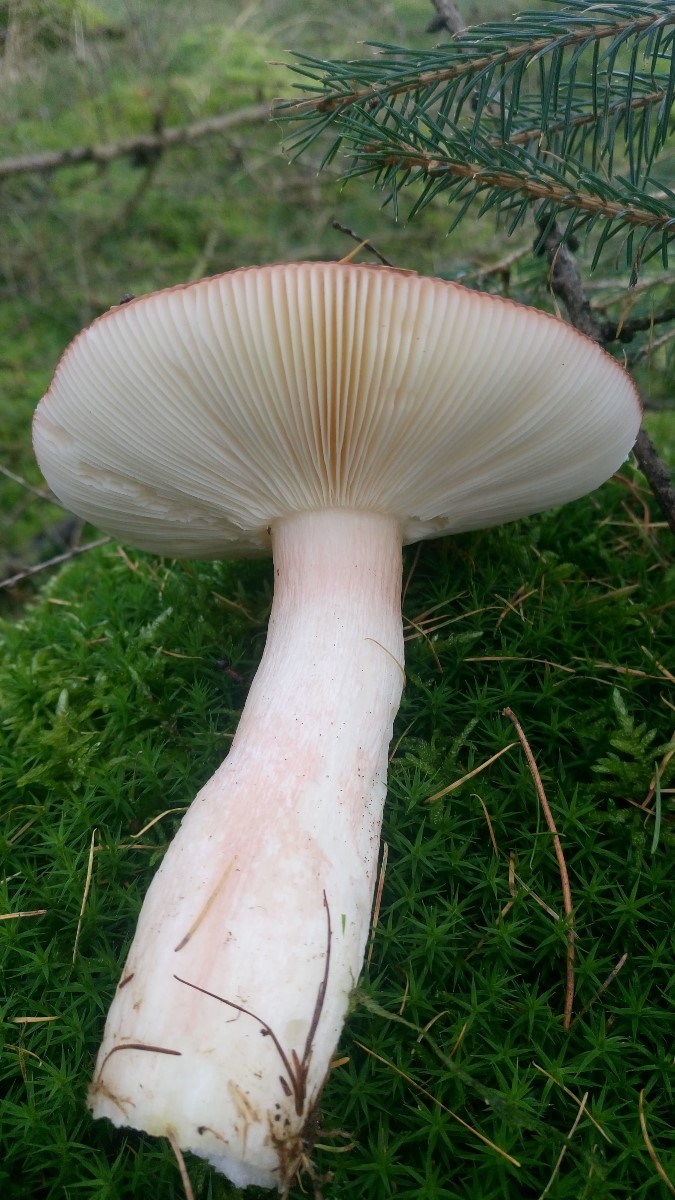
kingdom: Fungi
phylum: Basidiomycota
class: Agaricomycetes
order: Russulales
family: Russulaceae
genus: Russula
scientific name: Russula paludosa
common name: prægtig skørhat
